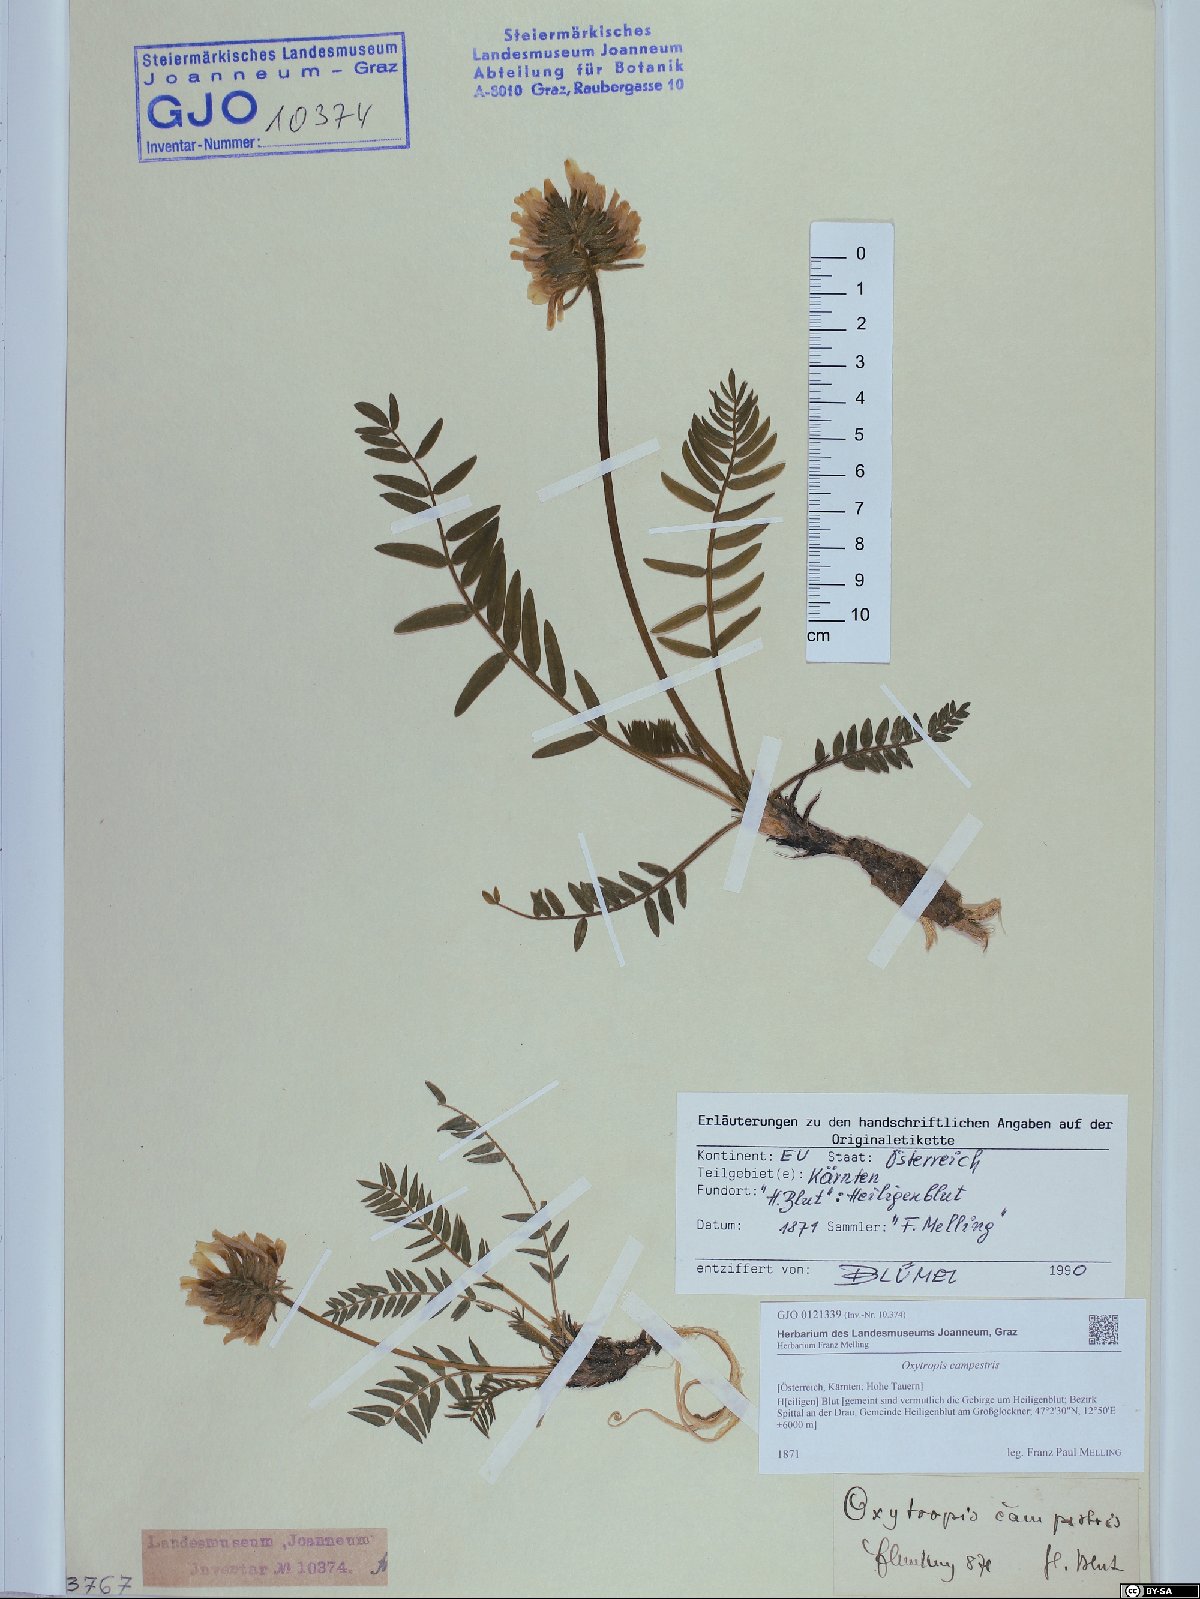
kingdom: Plantae
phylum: Tracheophyta
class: Magnoliopsida
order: Fabales
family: Fabaceae
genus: Oxytropis
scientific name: Oxytropis campestris
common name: Field locoweed
